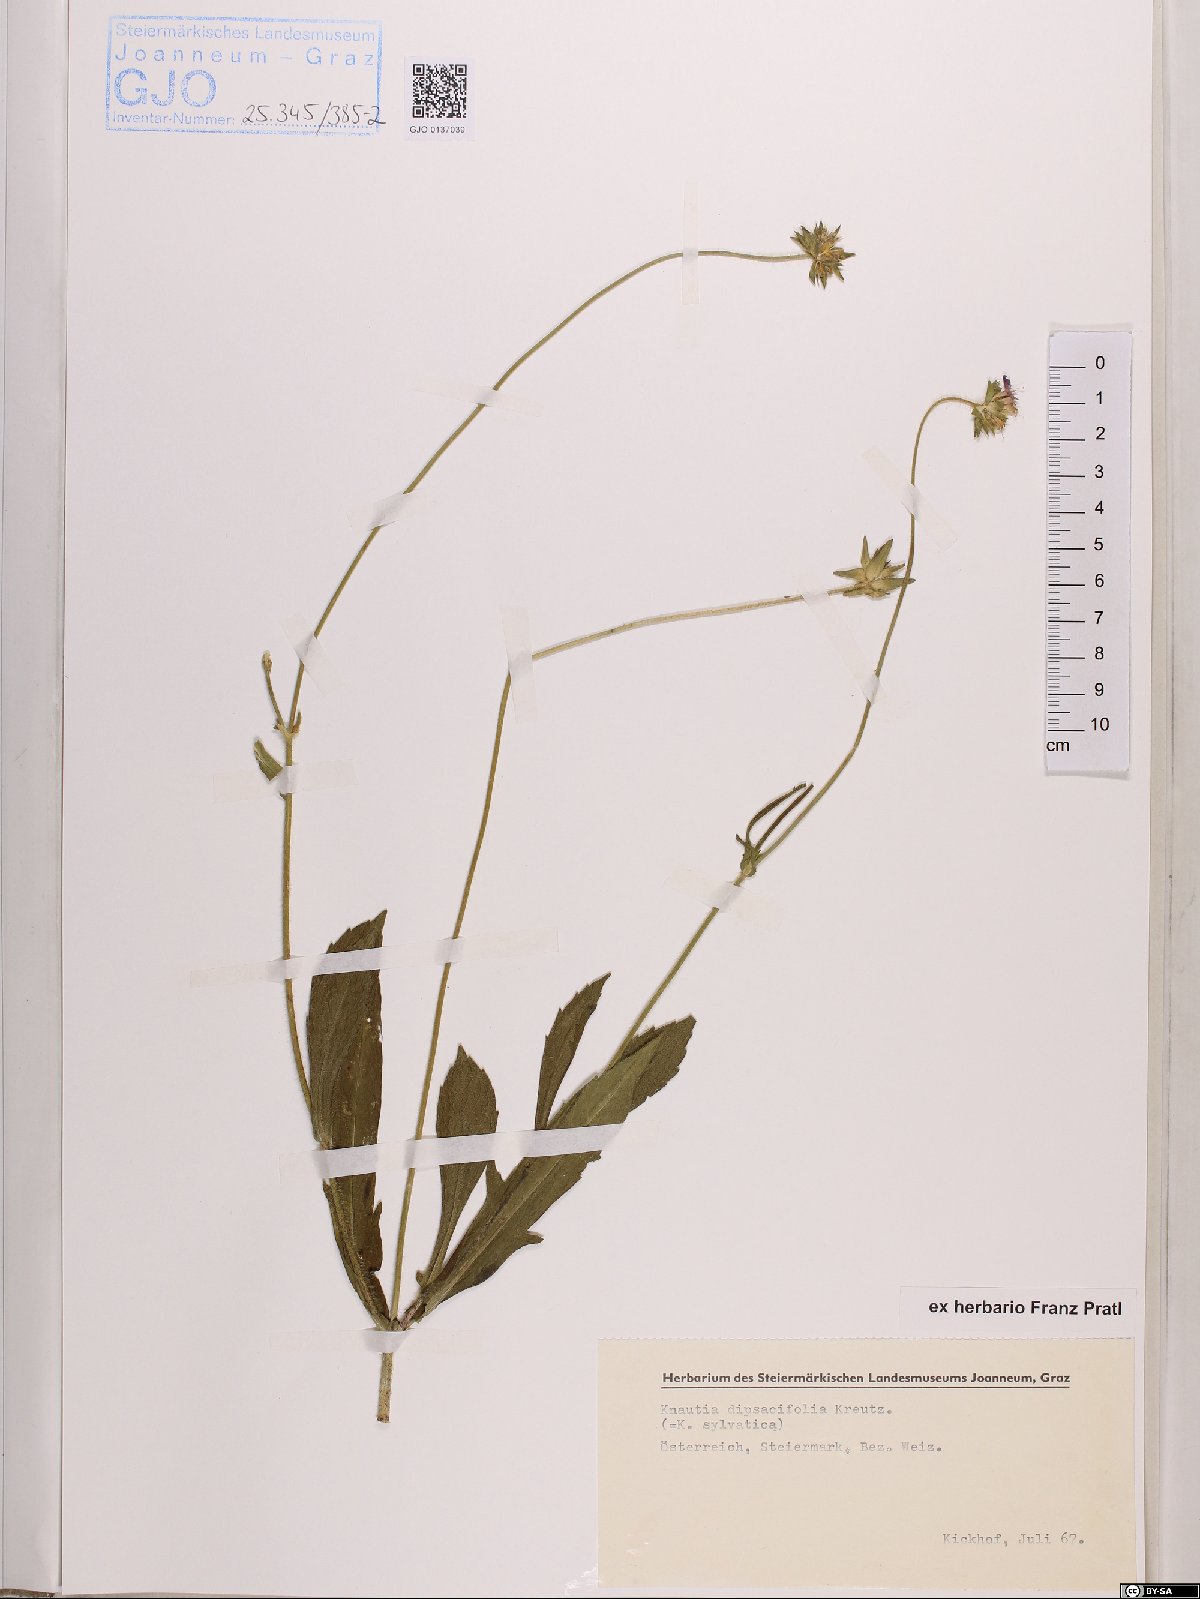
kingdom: Plantae
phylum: Tracheophyta
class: Magnoliopsida
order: Dipsacales
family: Caprifoliaceae
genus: Knautia
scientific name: Knautia dipsacifolia
